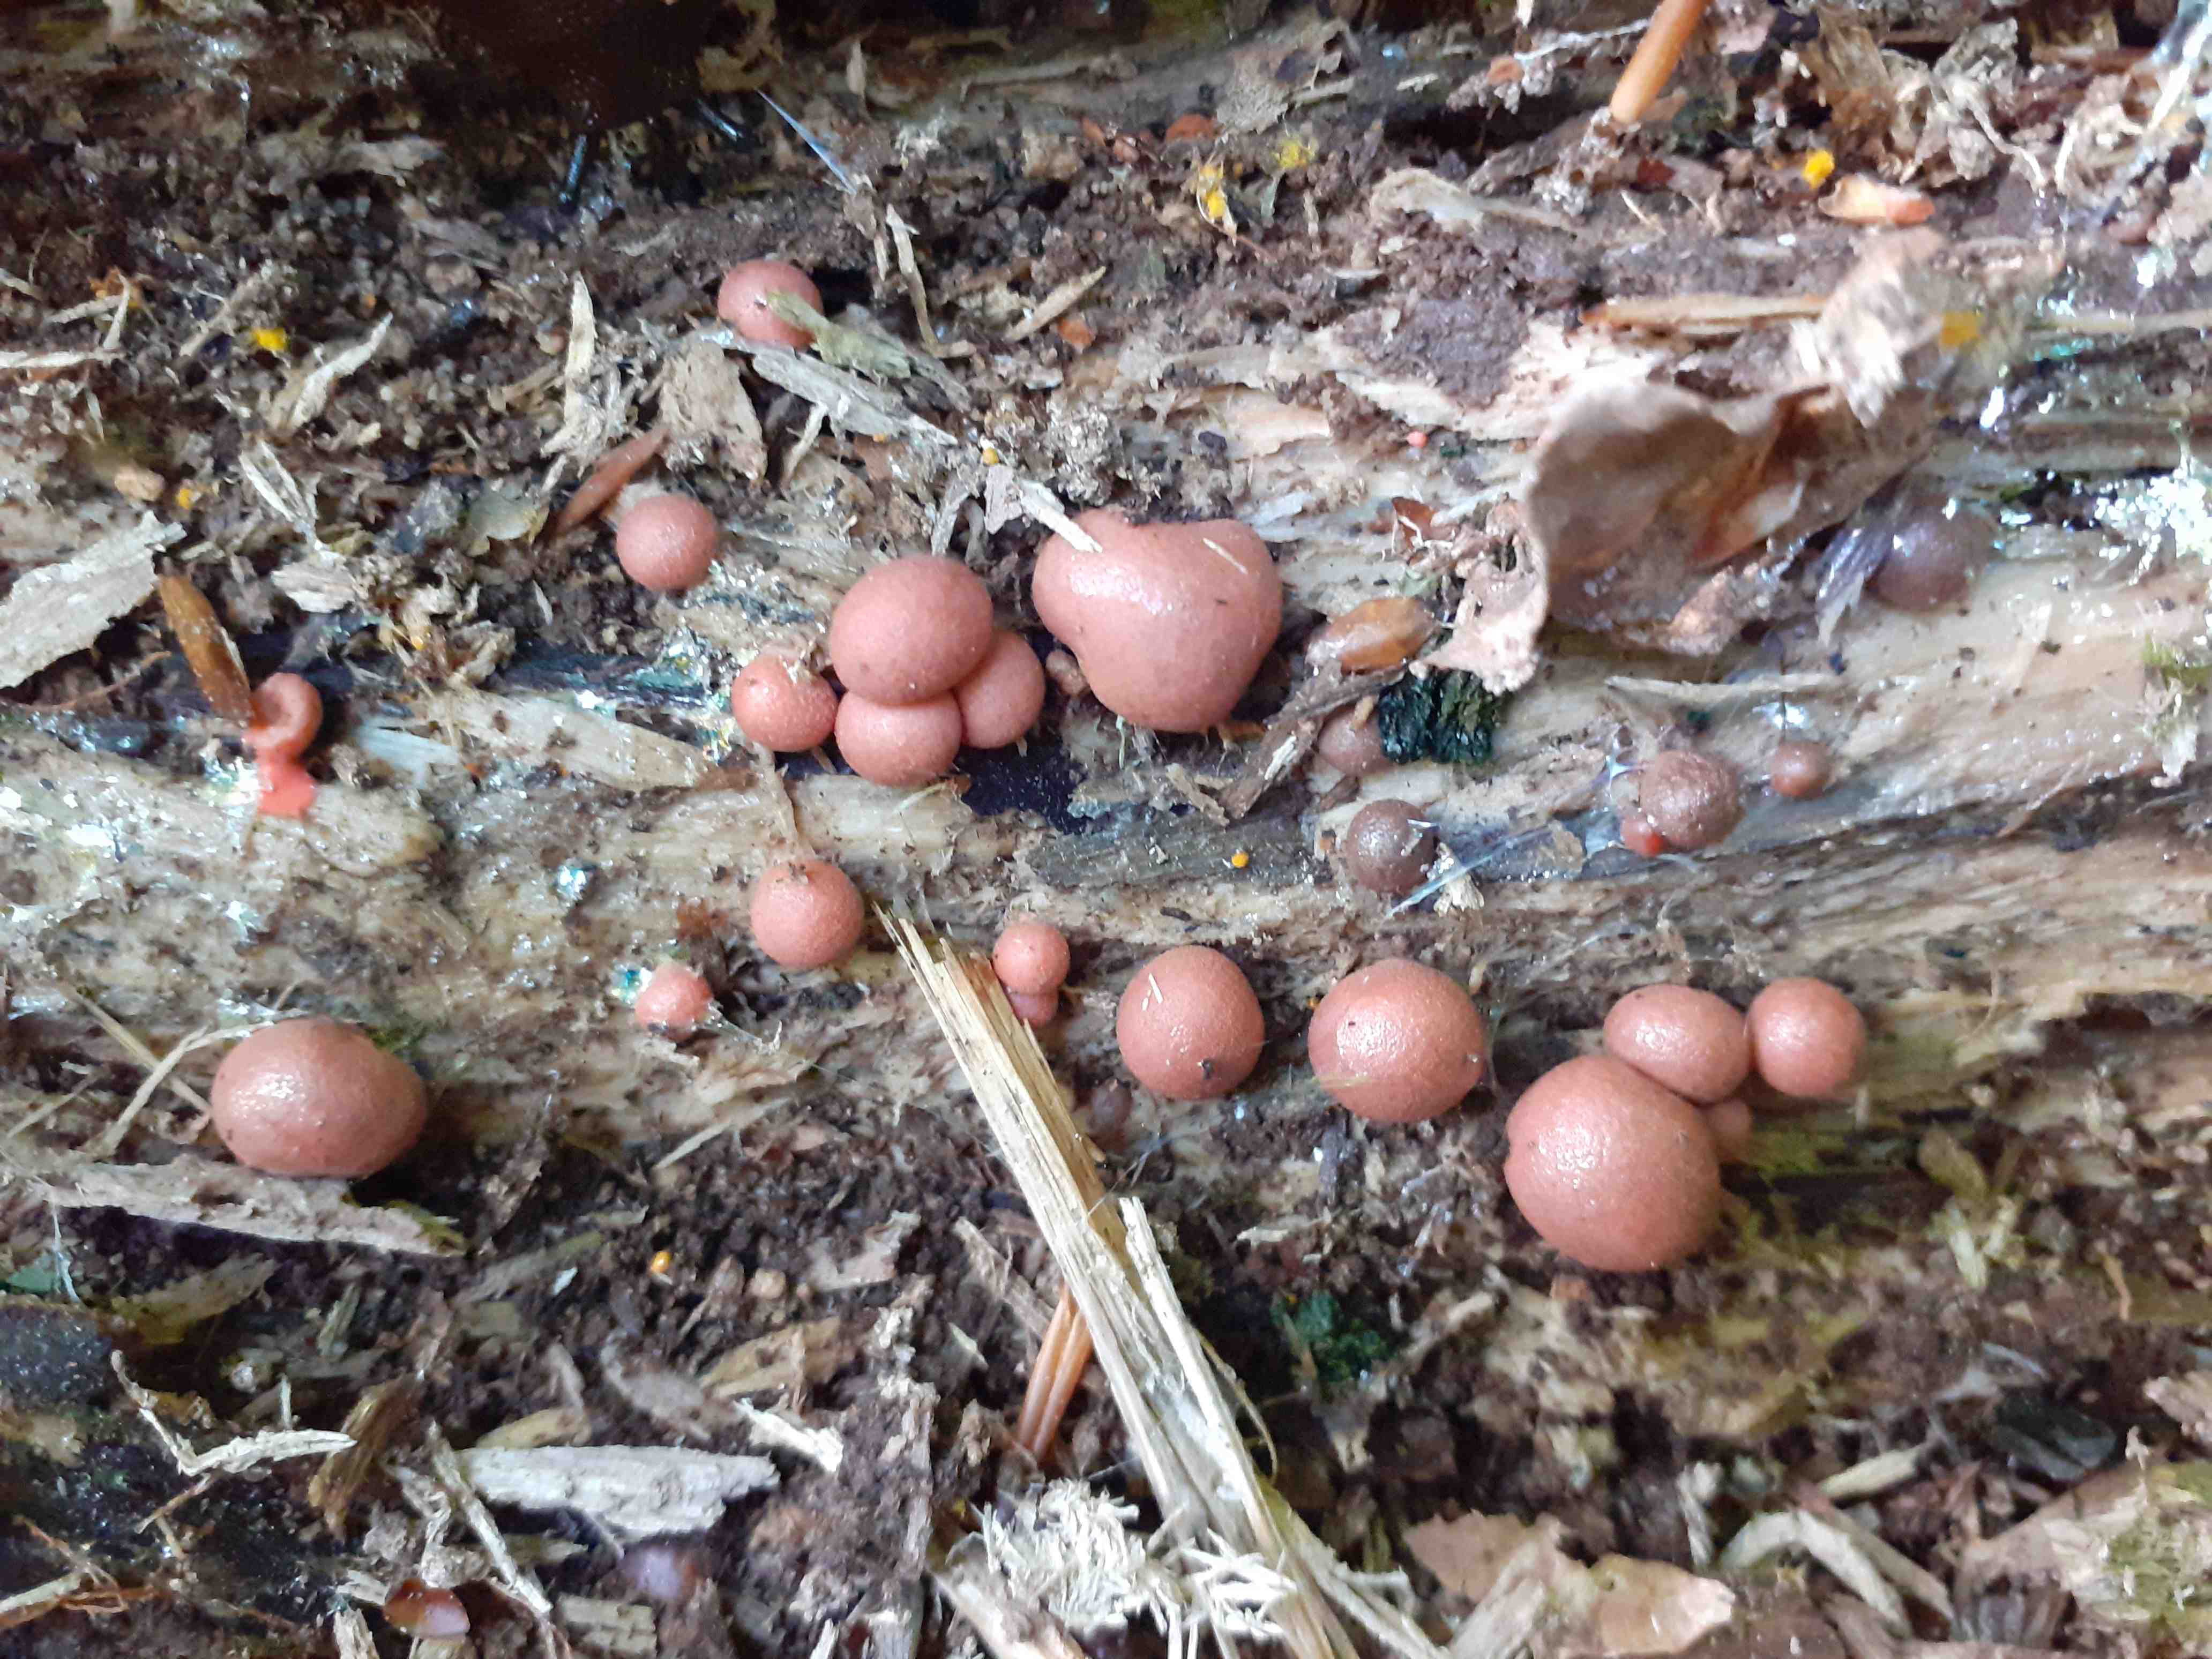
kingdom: Protozoa
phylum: Mycetozoa
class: Myxomycetes
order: Cribrariales
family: Tubiferaceae
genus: Lycogala
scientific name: Lycogala epidendrum
